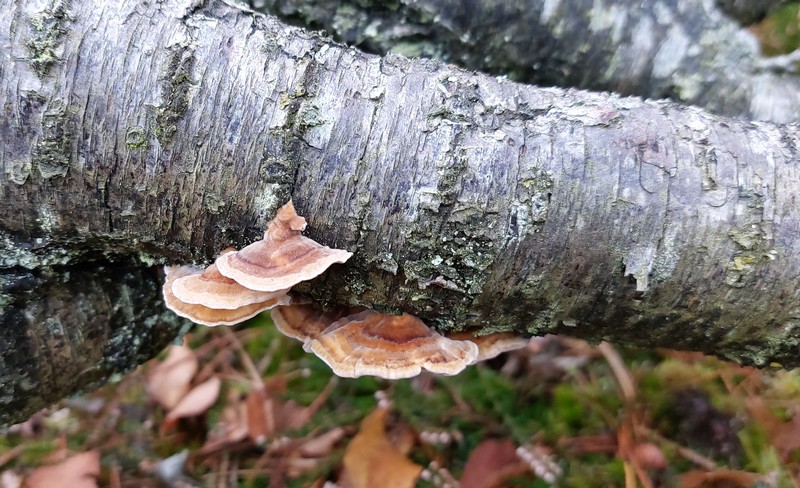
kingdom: Fungi
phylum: Basidiomycota
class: Agaricomycetes
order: Polyporales
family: Polyporaceae
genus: Trametes
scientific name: Trametes ochracea
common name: bæltet læderporesvamp
